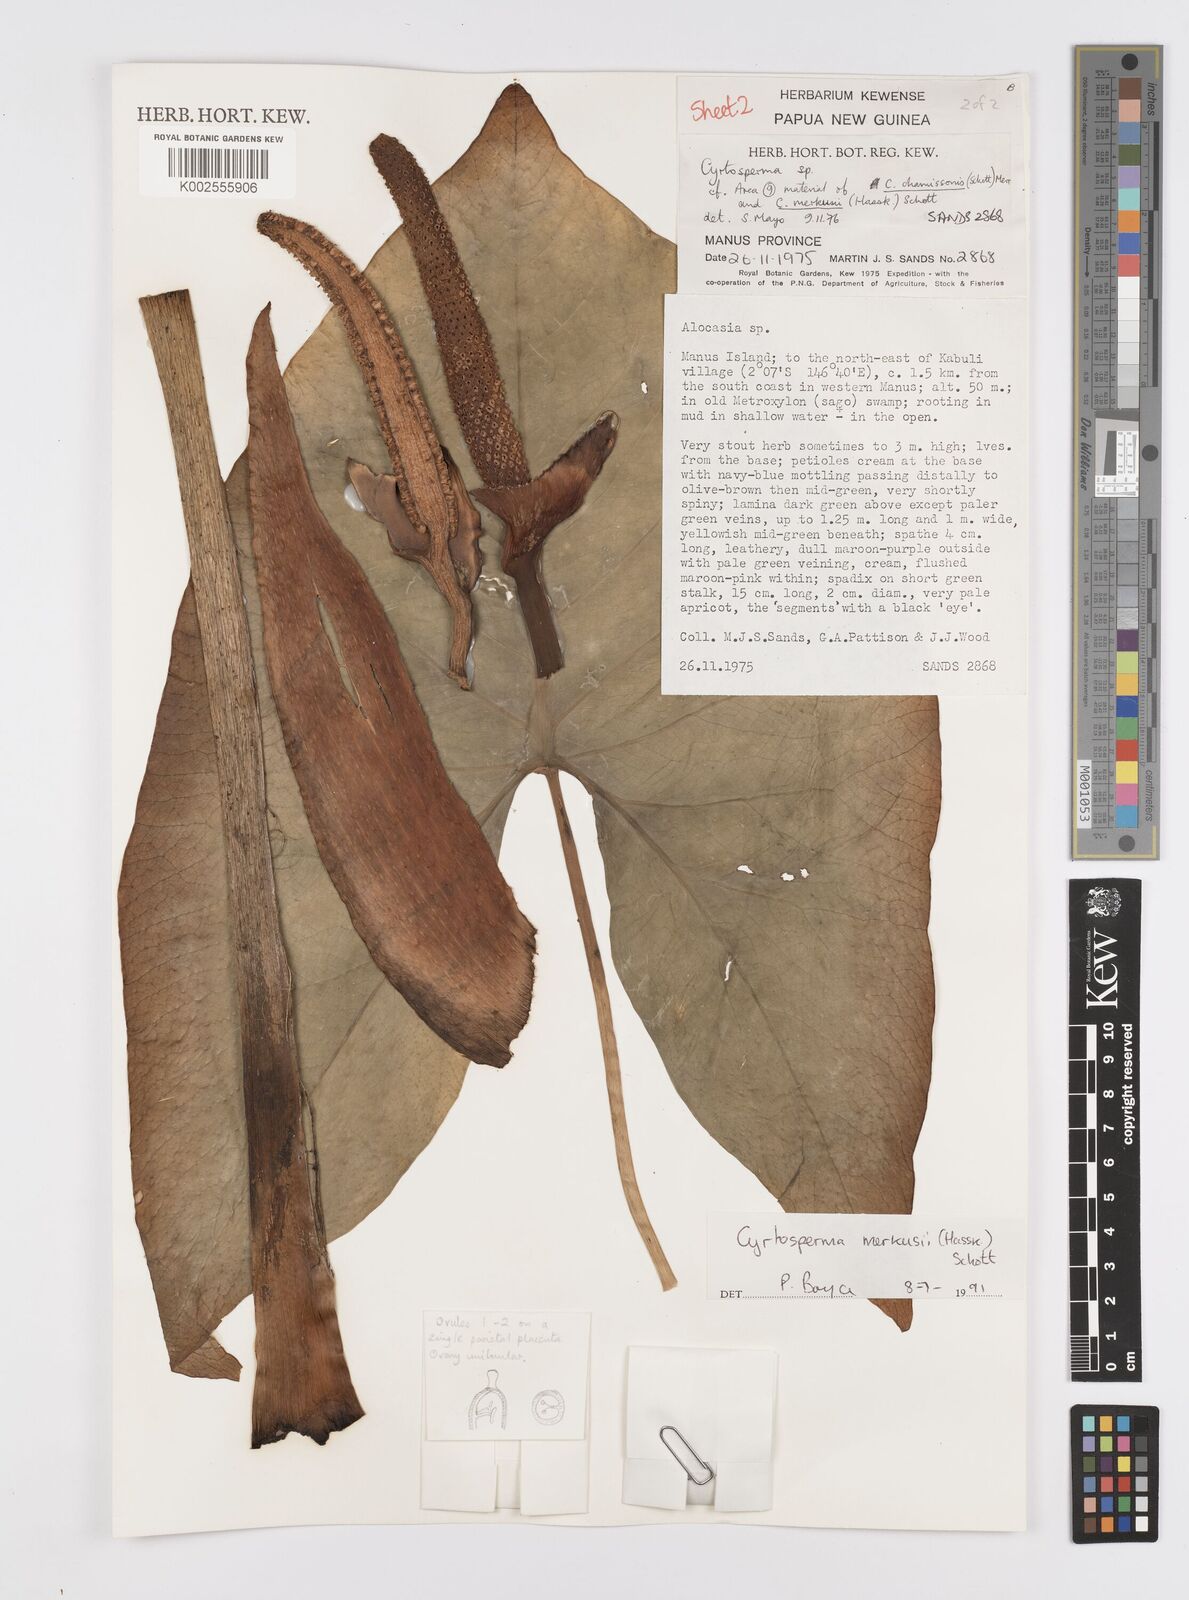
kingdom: Plantae
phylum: Tracheophyta
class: Liliopsida
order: Alismatales
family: Araceae
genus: Cyrtosperma
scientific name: Cyrtosperma merkusii
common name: Giant swamp-taro
